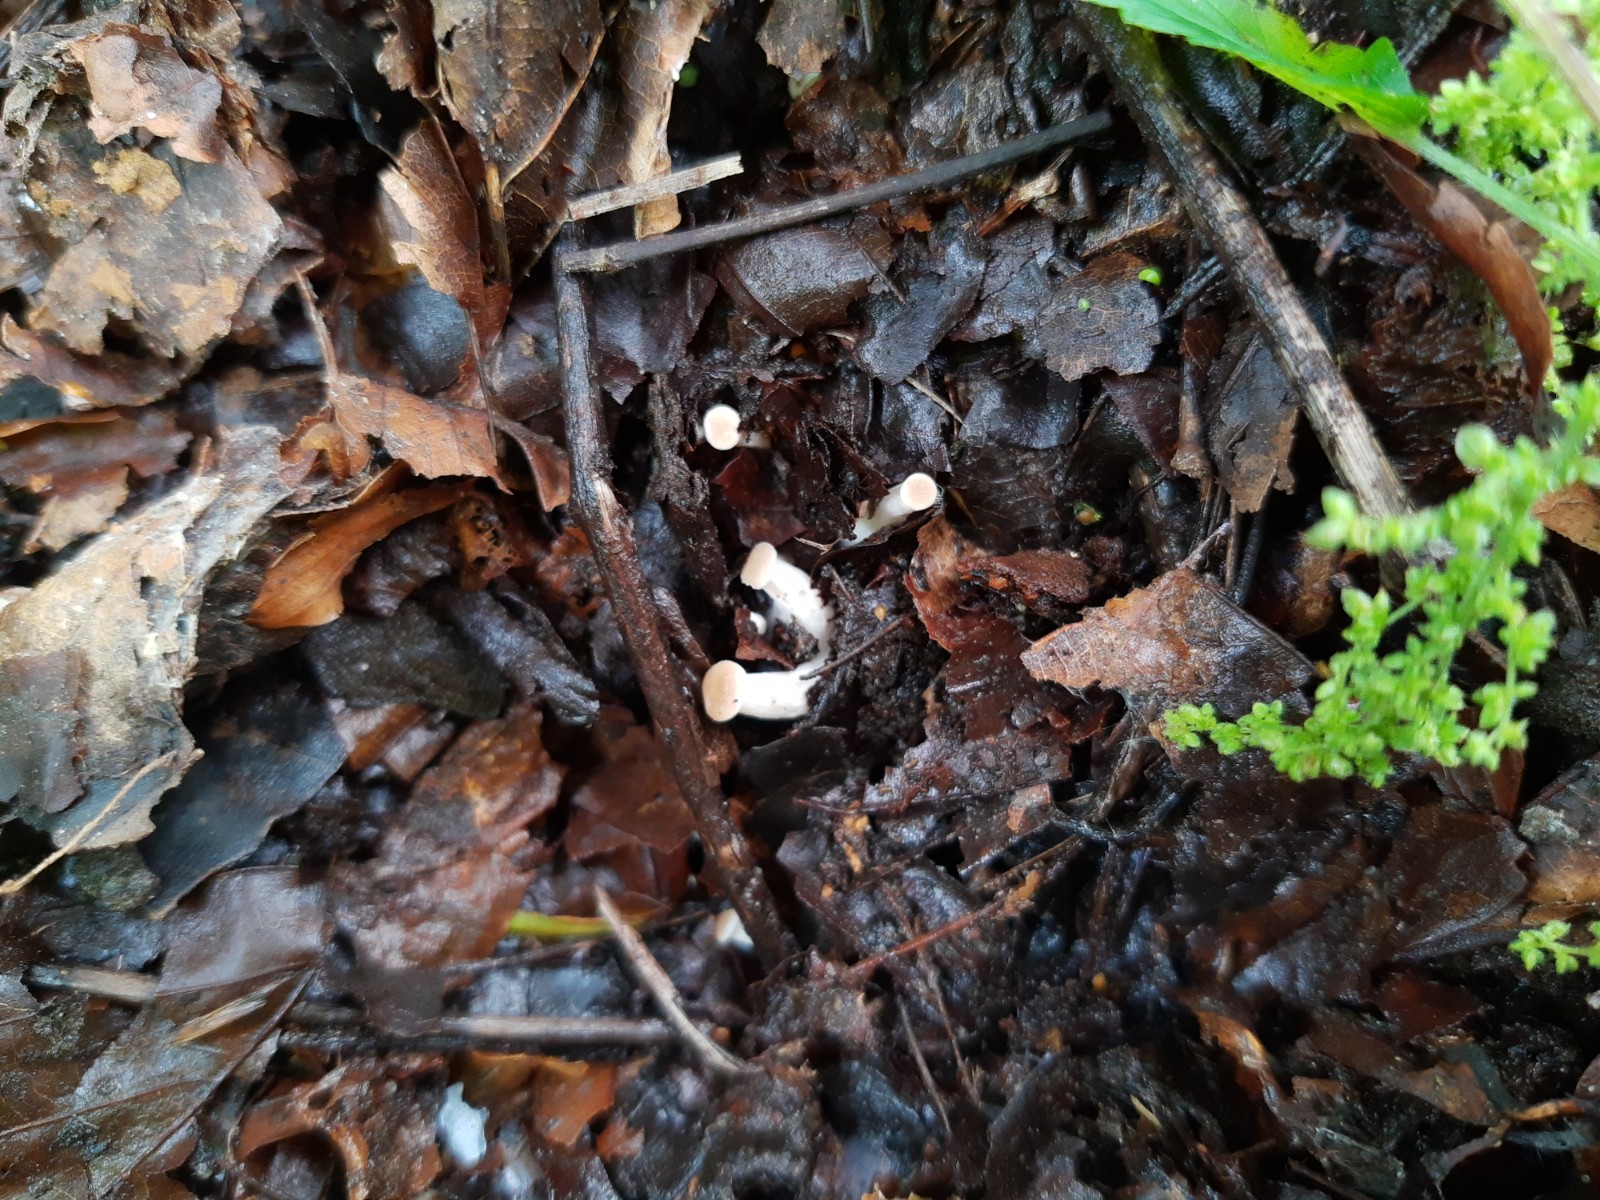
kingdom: Fungi
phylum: Basidiomycota
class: Agaricomycetes
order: Agaricales
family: Tricholomataceae
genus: Clitocybe
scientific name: Clitocybe phaeophthalma
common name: stinkende tragthat
